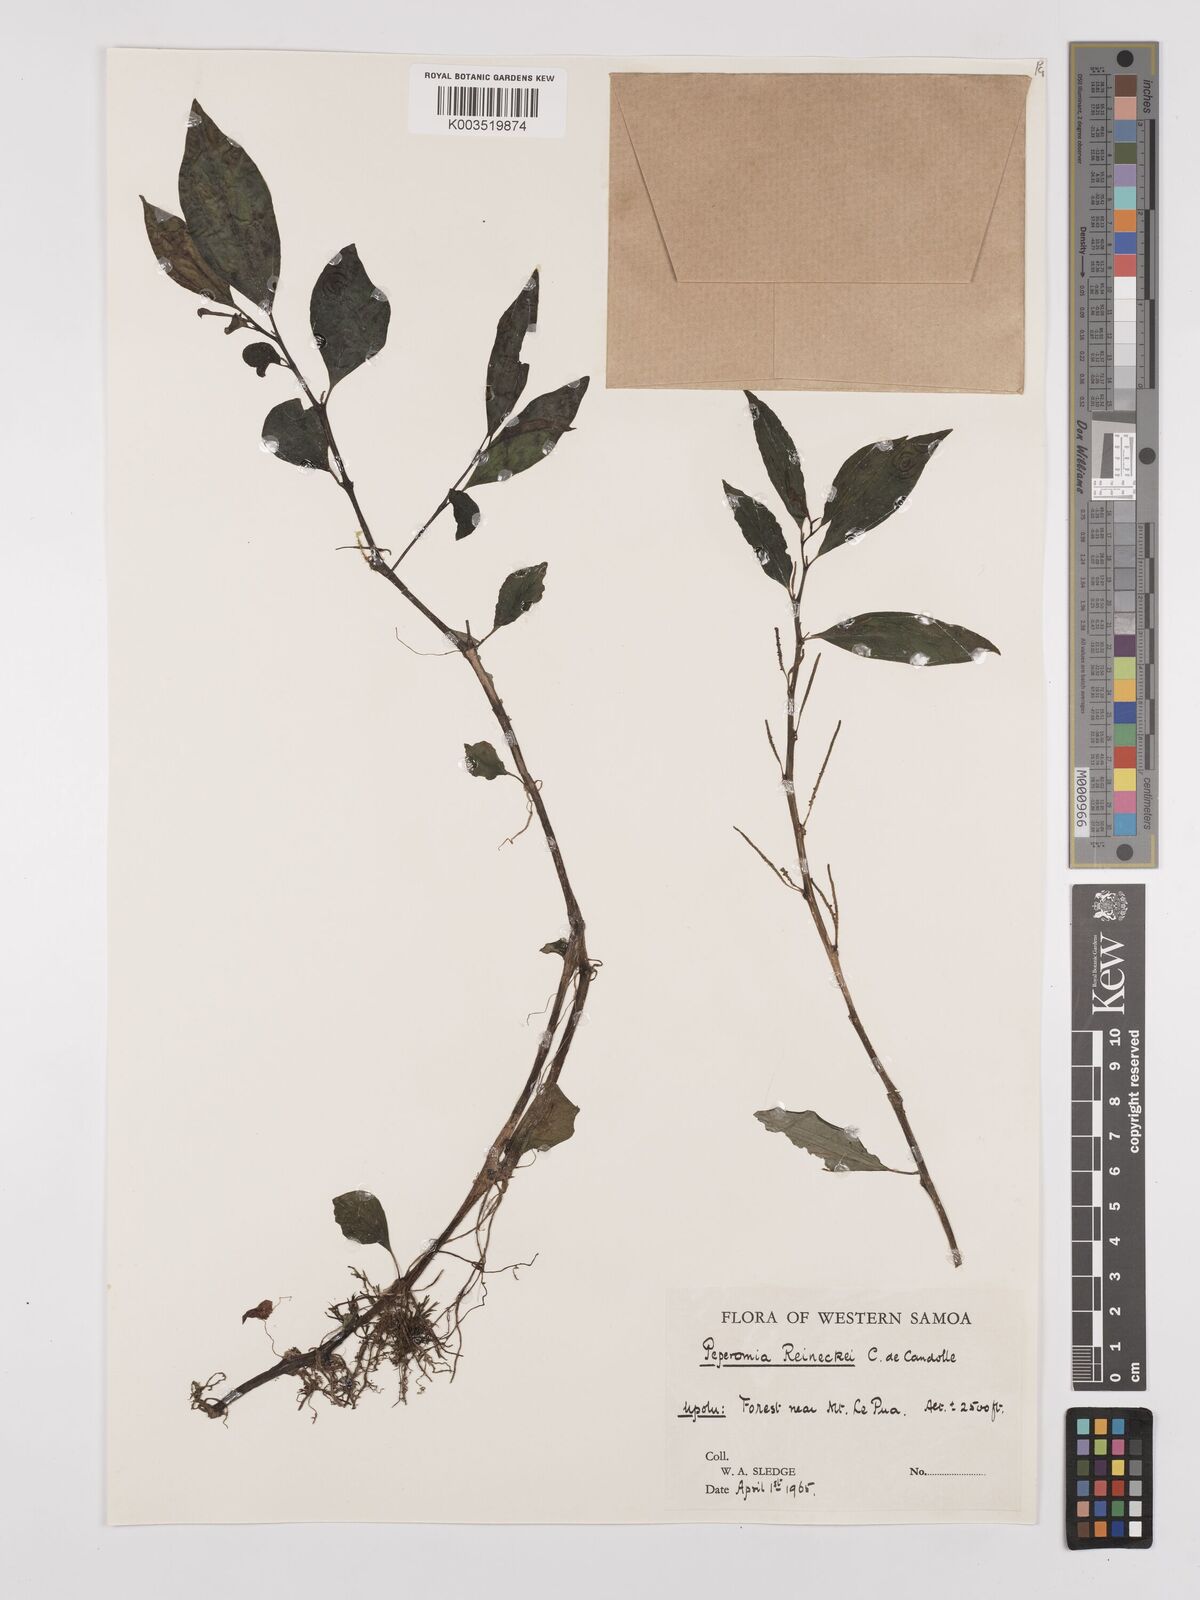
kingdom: Plantae
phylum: Tracheophyta
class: Magnoliopsida
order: Piperales
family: Piperaceae
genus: Peperomia
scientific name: Peperomia reineckei
